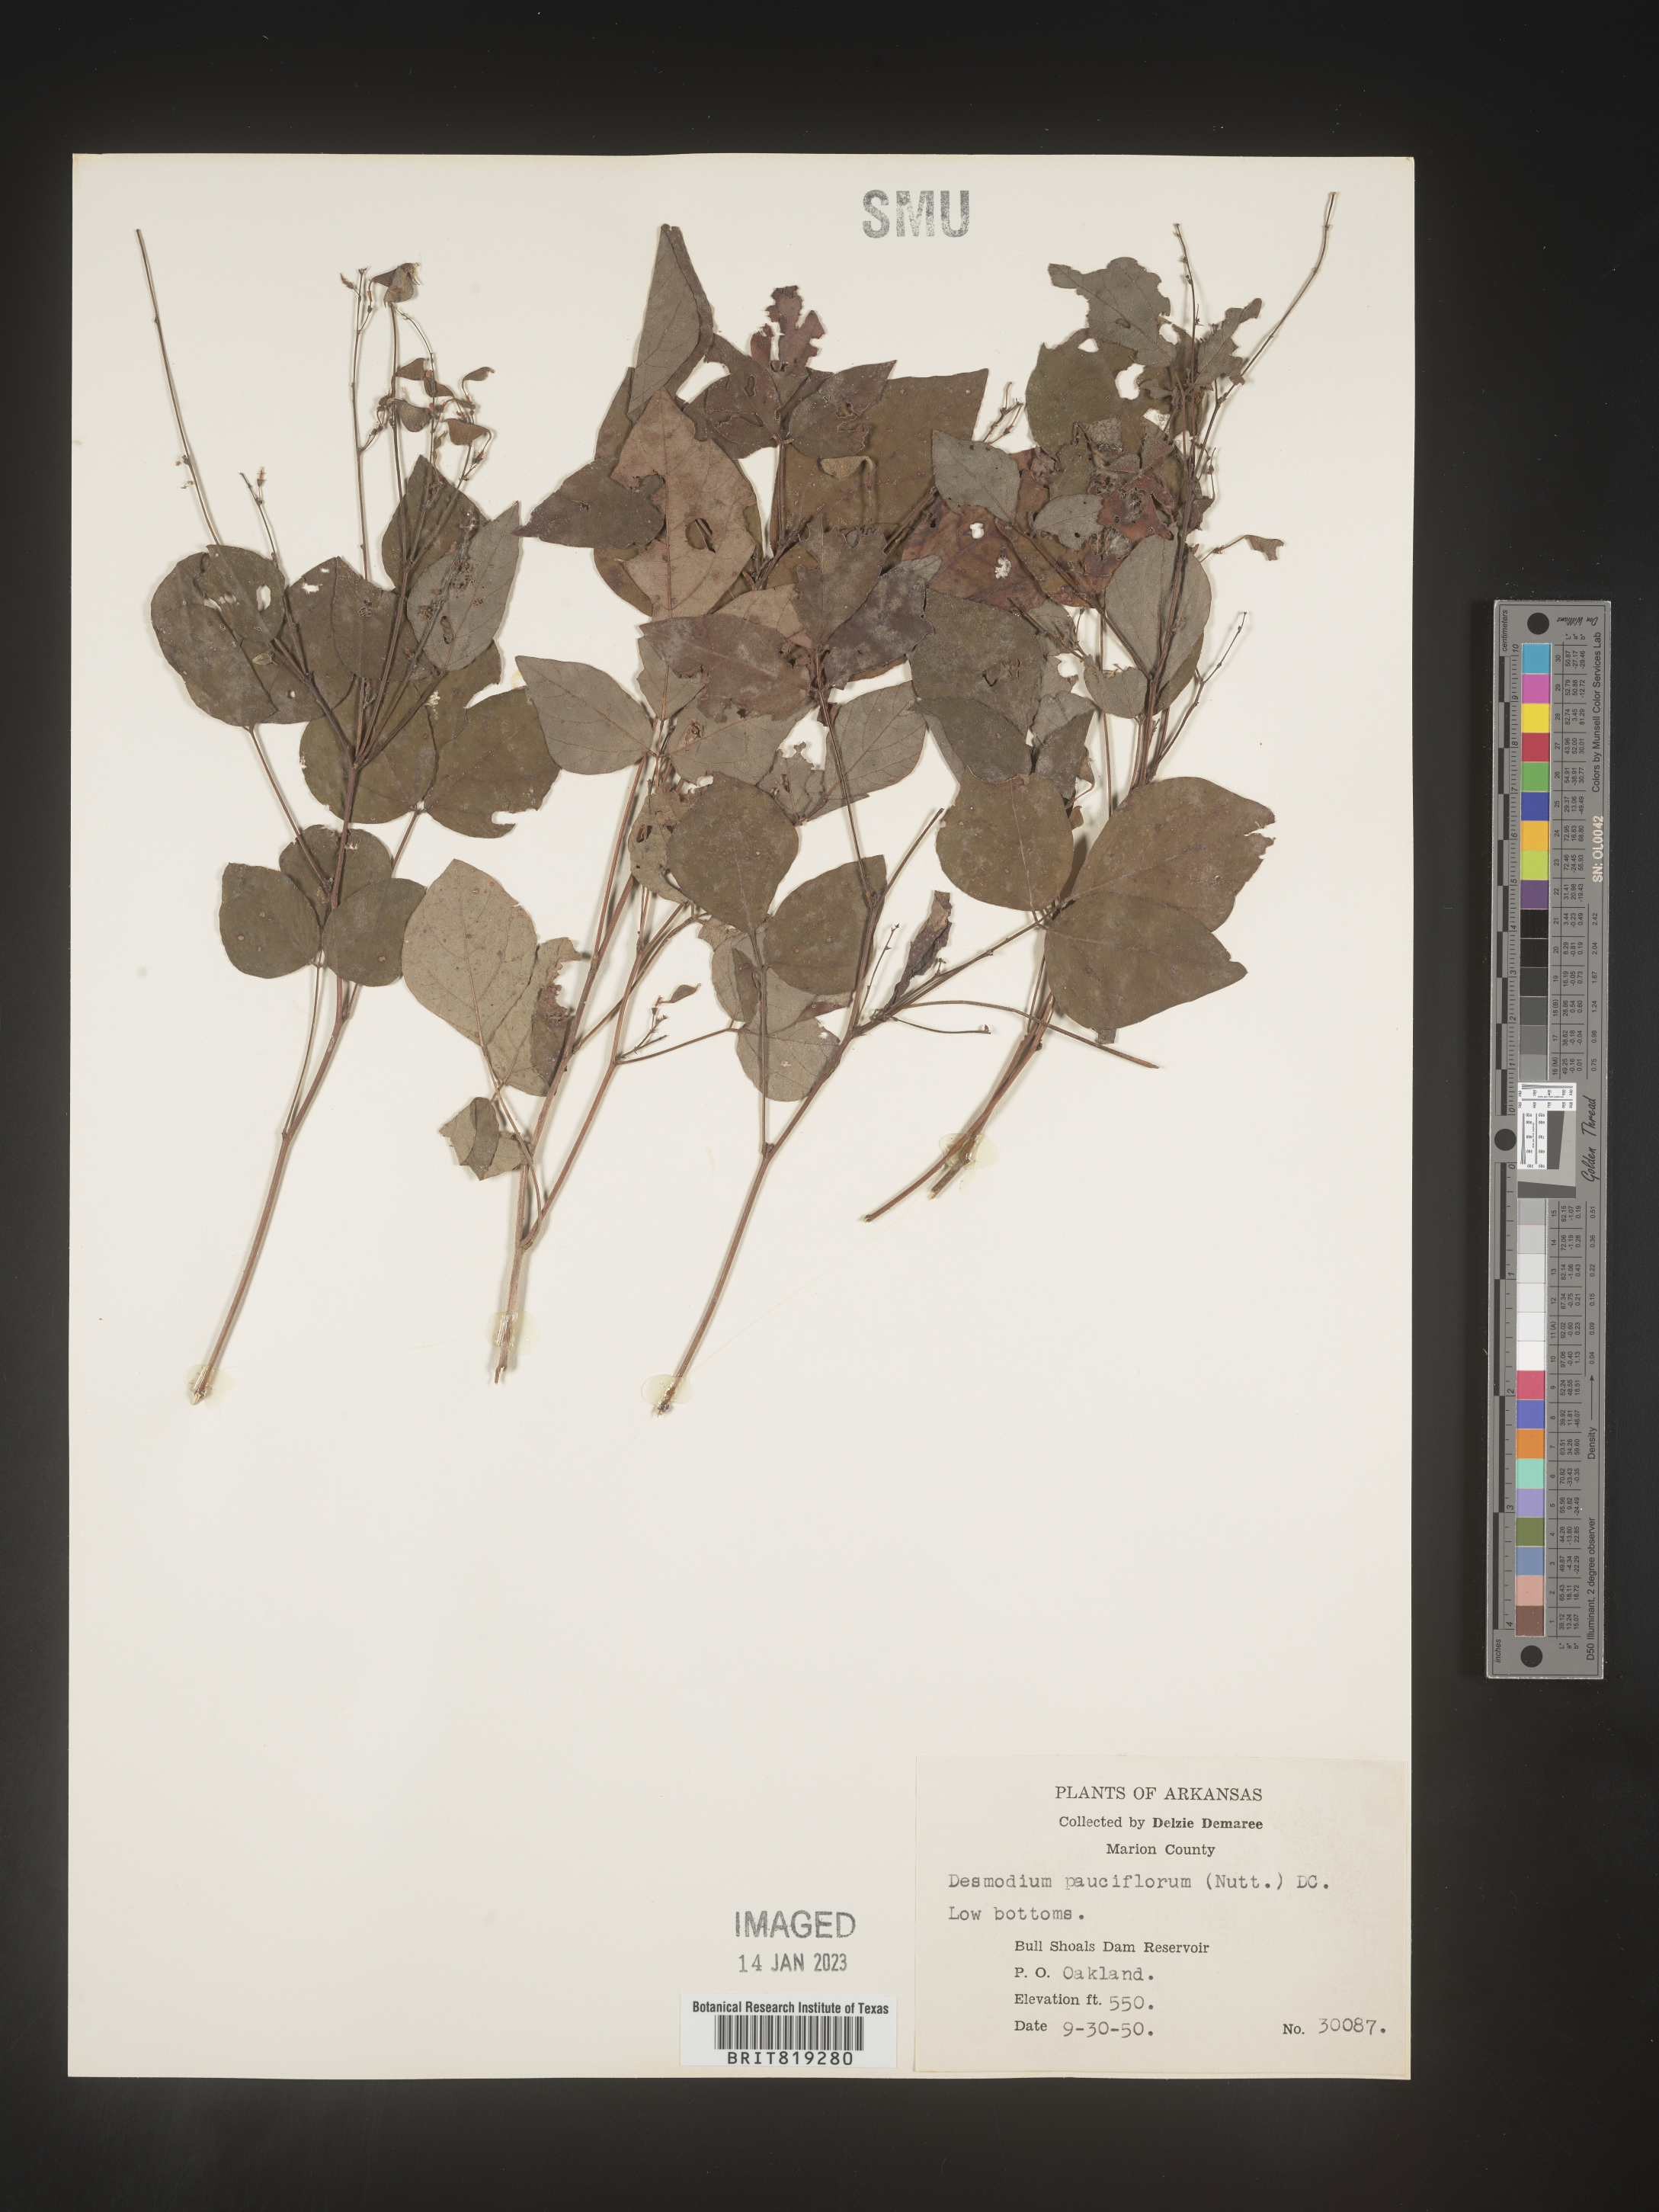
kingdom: Plantae
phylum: Tracheophyta
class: Magnoliopsida
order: Fabales
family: Fabaceae
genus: Hylodesmum
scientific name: Hylodesmum pauciflorum
